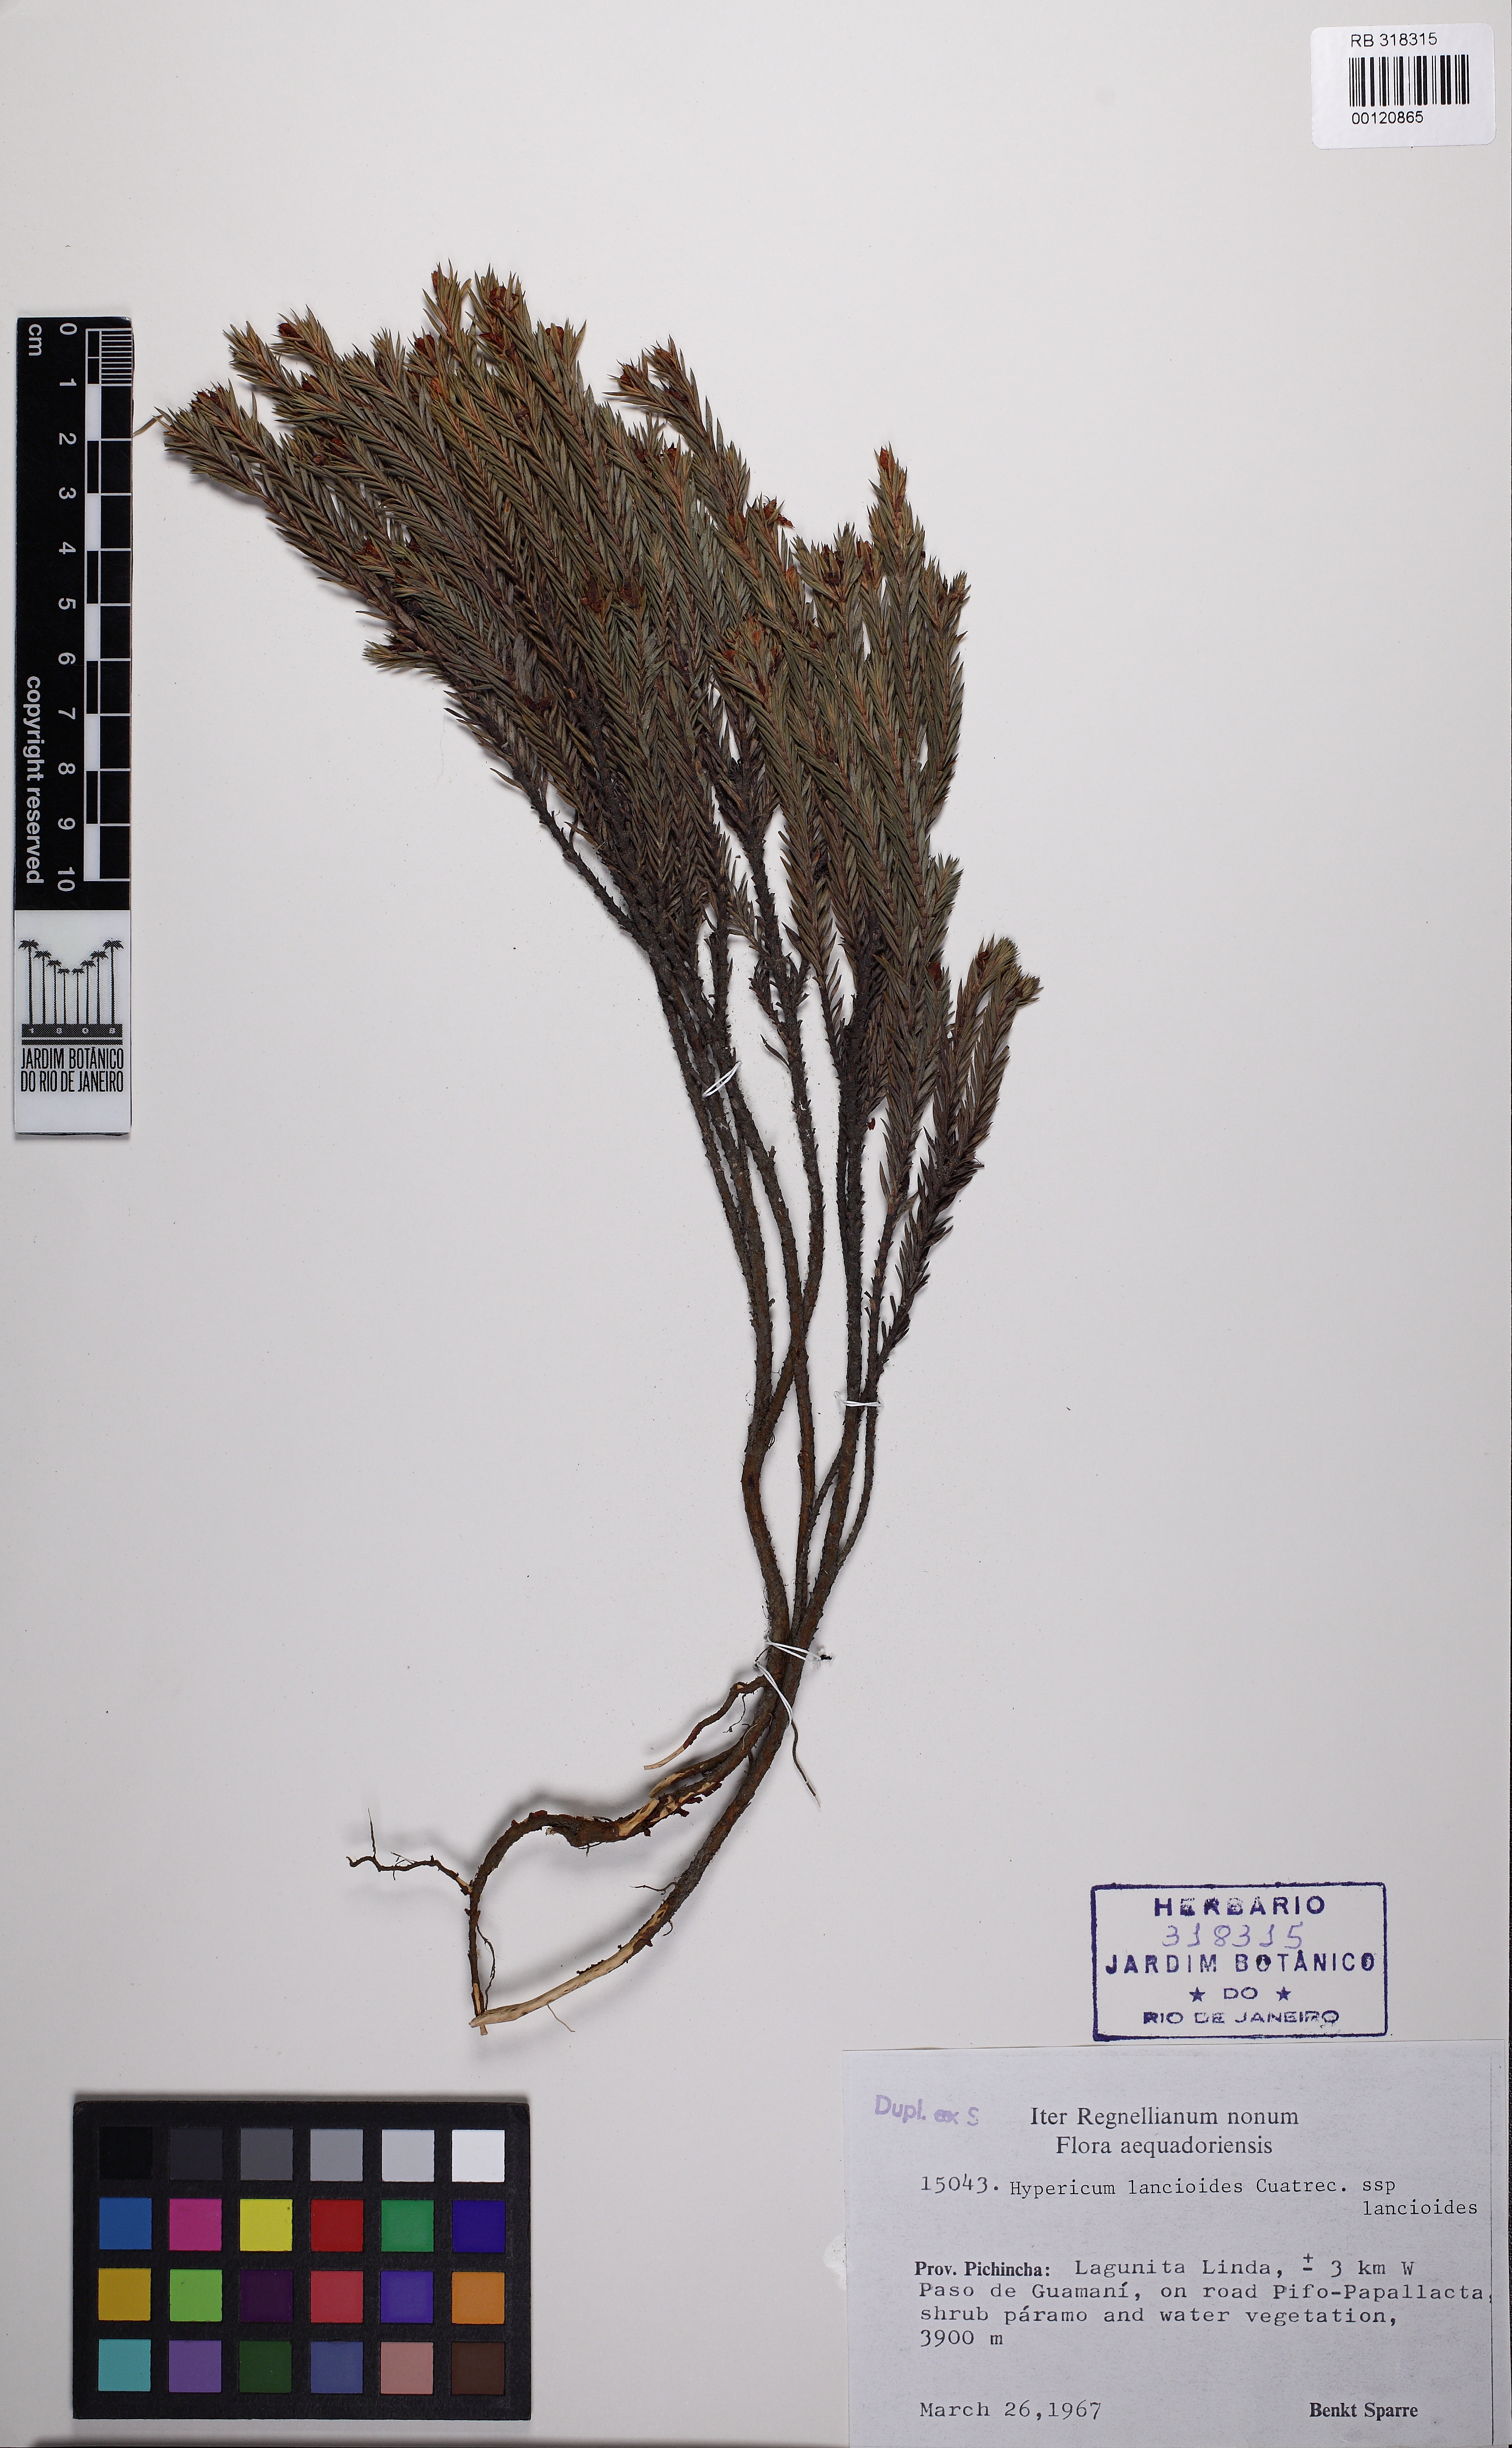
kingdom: Plantae
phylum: Tracheophyta
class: Magnoliopsida
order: Malpighiales
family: Hypericaceae
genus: Hypericum
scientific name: Hypericum lancioides
